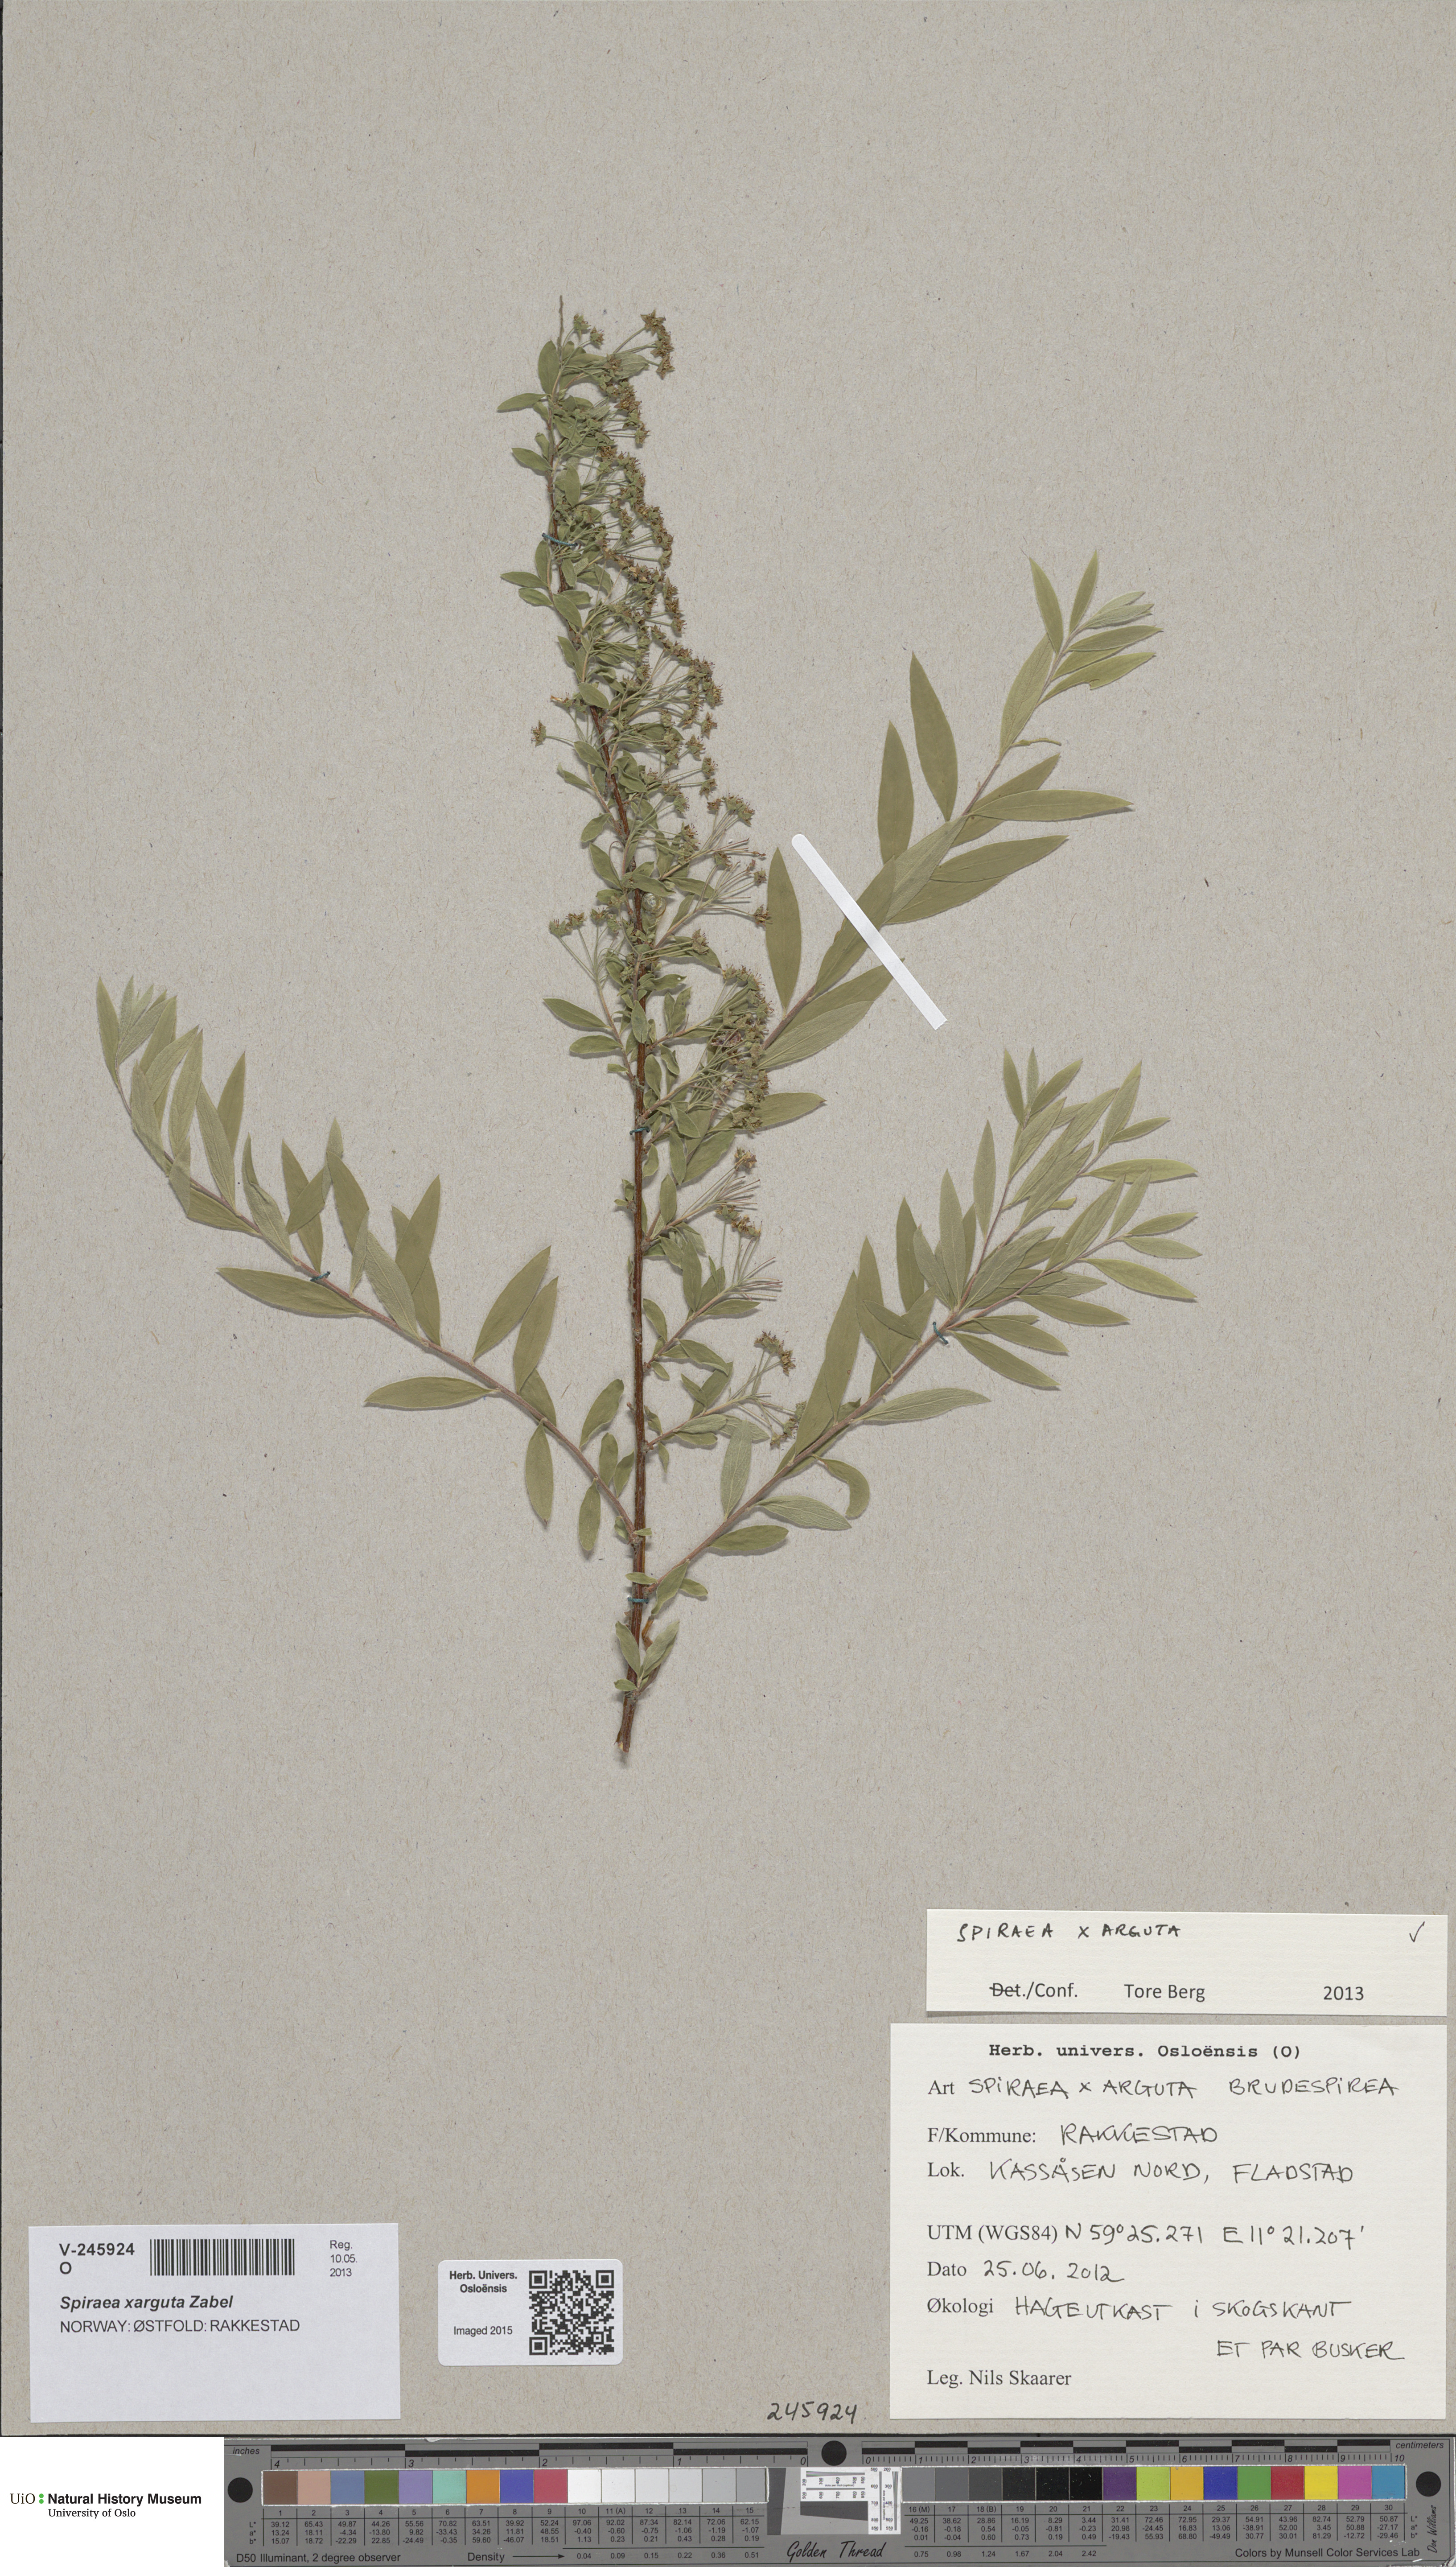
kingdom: Plantae
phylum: Tracheophyta
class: Magnoliopsida
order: Rosales
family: Rosaceae
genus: Spiraea
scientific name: Spiraea cinerea
